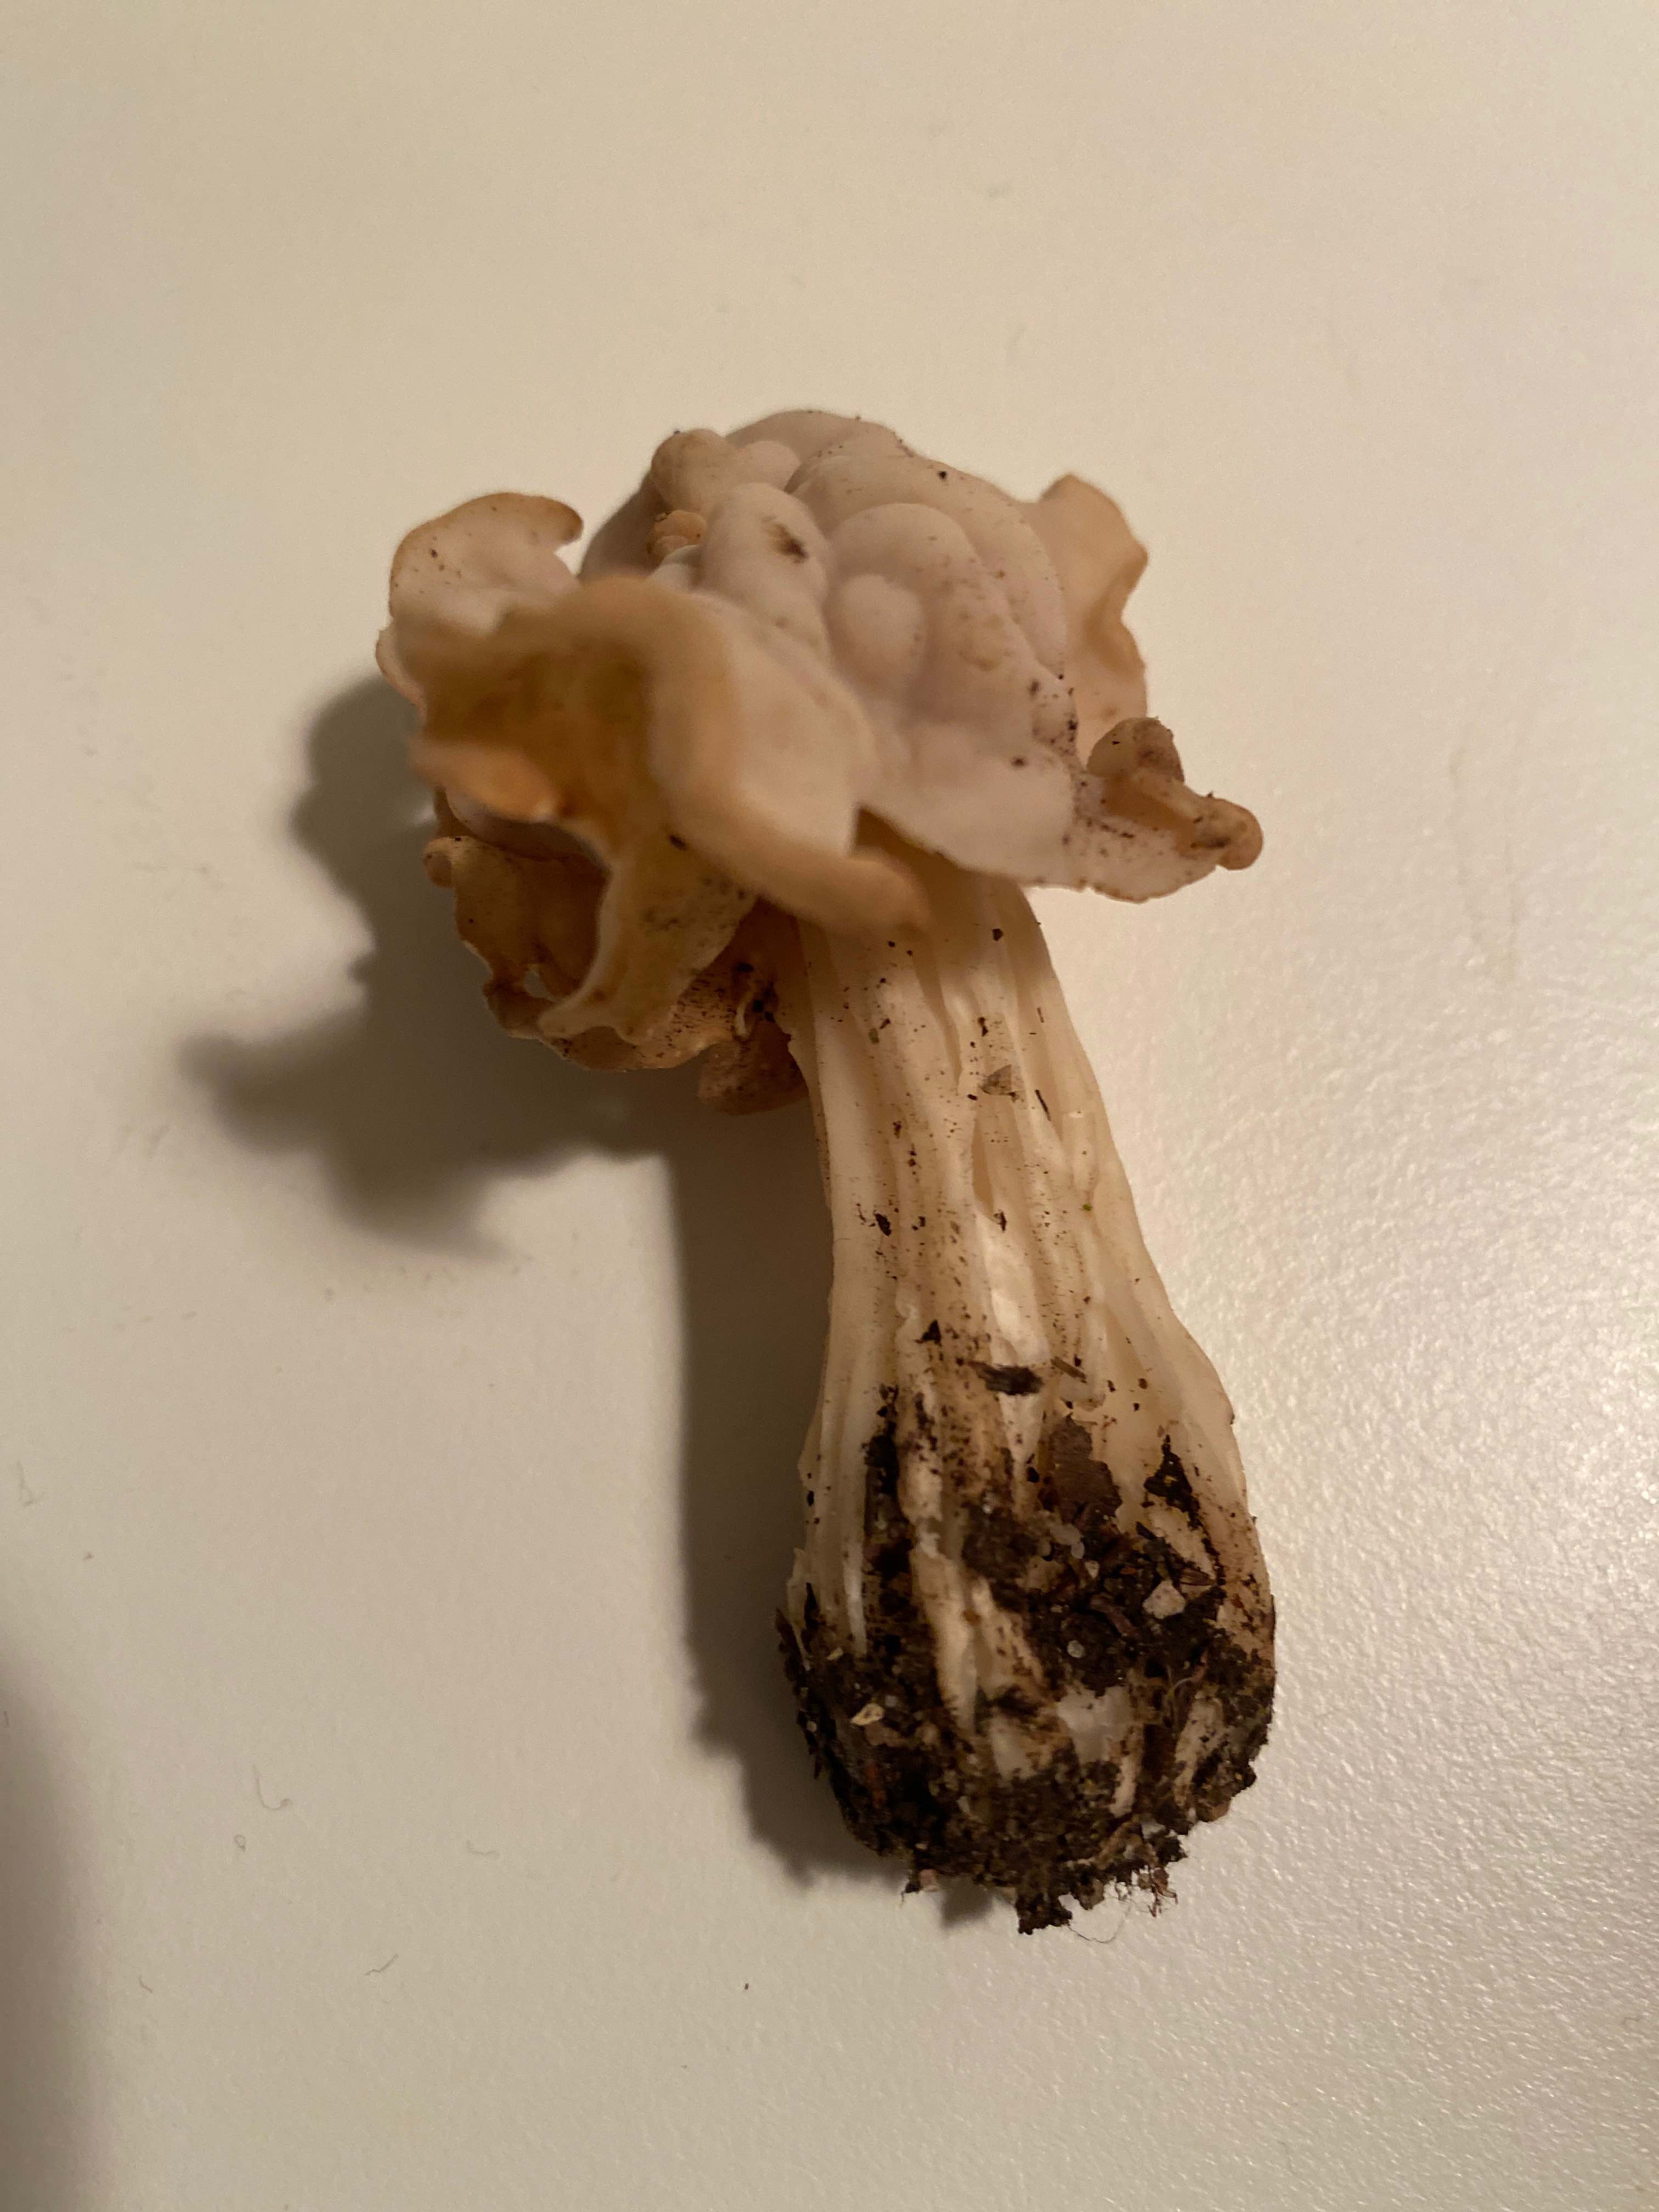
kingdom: Fungi
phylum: Ascomycota
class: Pezizomycetes
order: Pezizales
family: Helvellaceae
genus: Helvella
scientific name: Helvella crispa
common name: kruset foldhat
